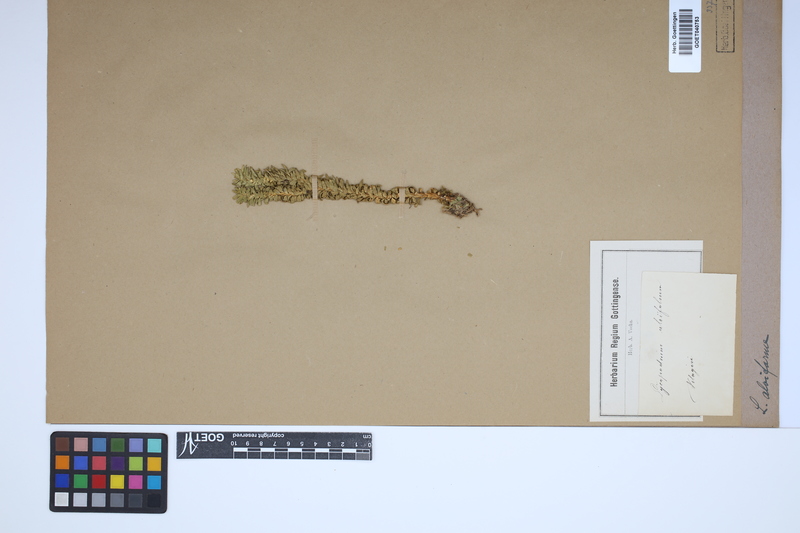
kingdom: Plantae
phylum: Tracheophyta
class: Lycopodiopsida
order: Lycopodiales
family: Lycopodiaceae
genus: Lycopodium
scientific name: Lycopodium
